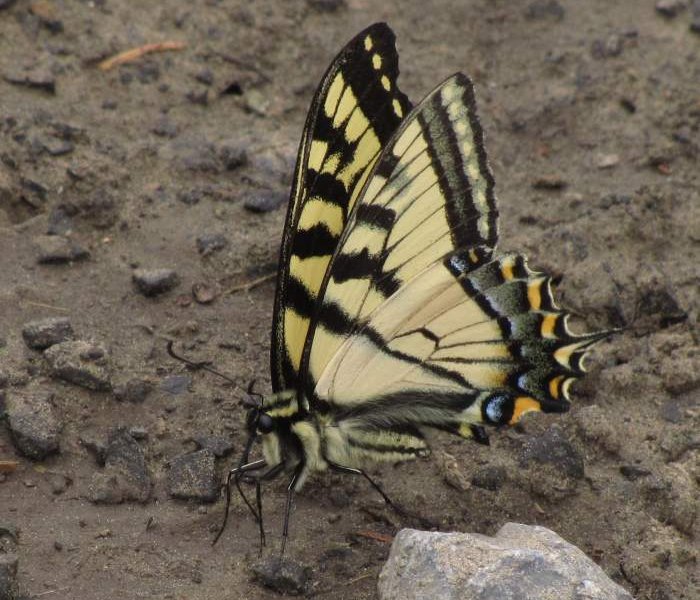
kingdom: Animalia
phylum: Arthropoda
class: Insecta
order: Lepidoptera
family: Papilionidae
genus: Pterourus
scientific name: Pterourus canadensis
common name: Canadian Tiger Swallowtail
